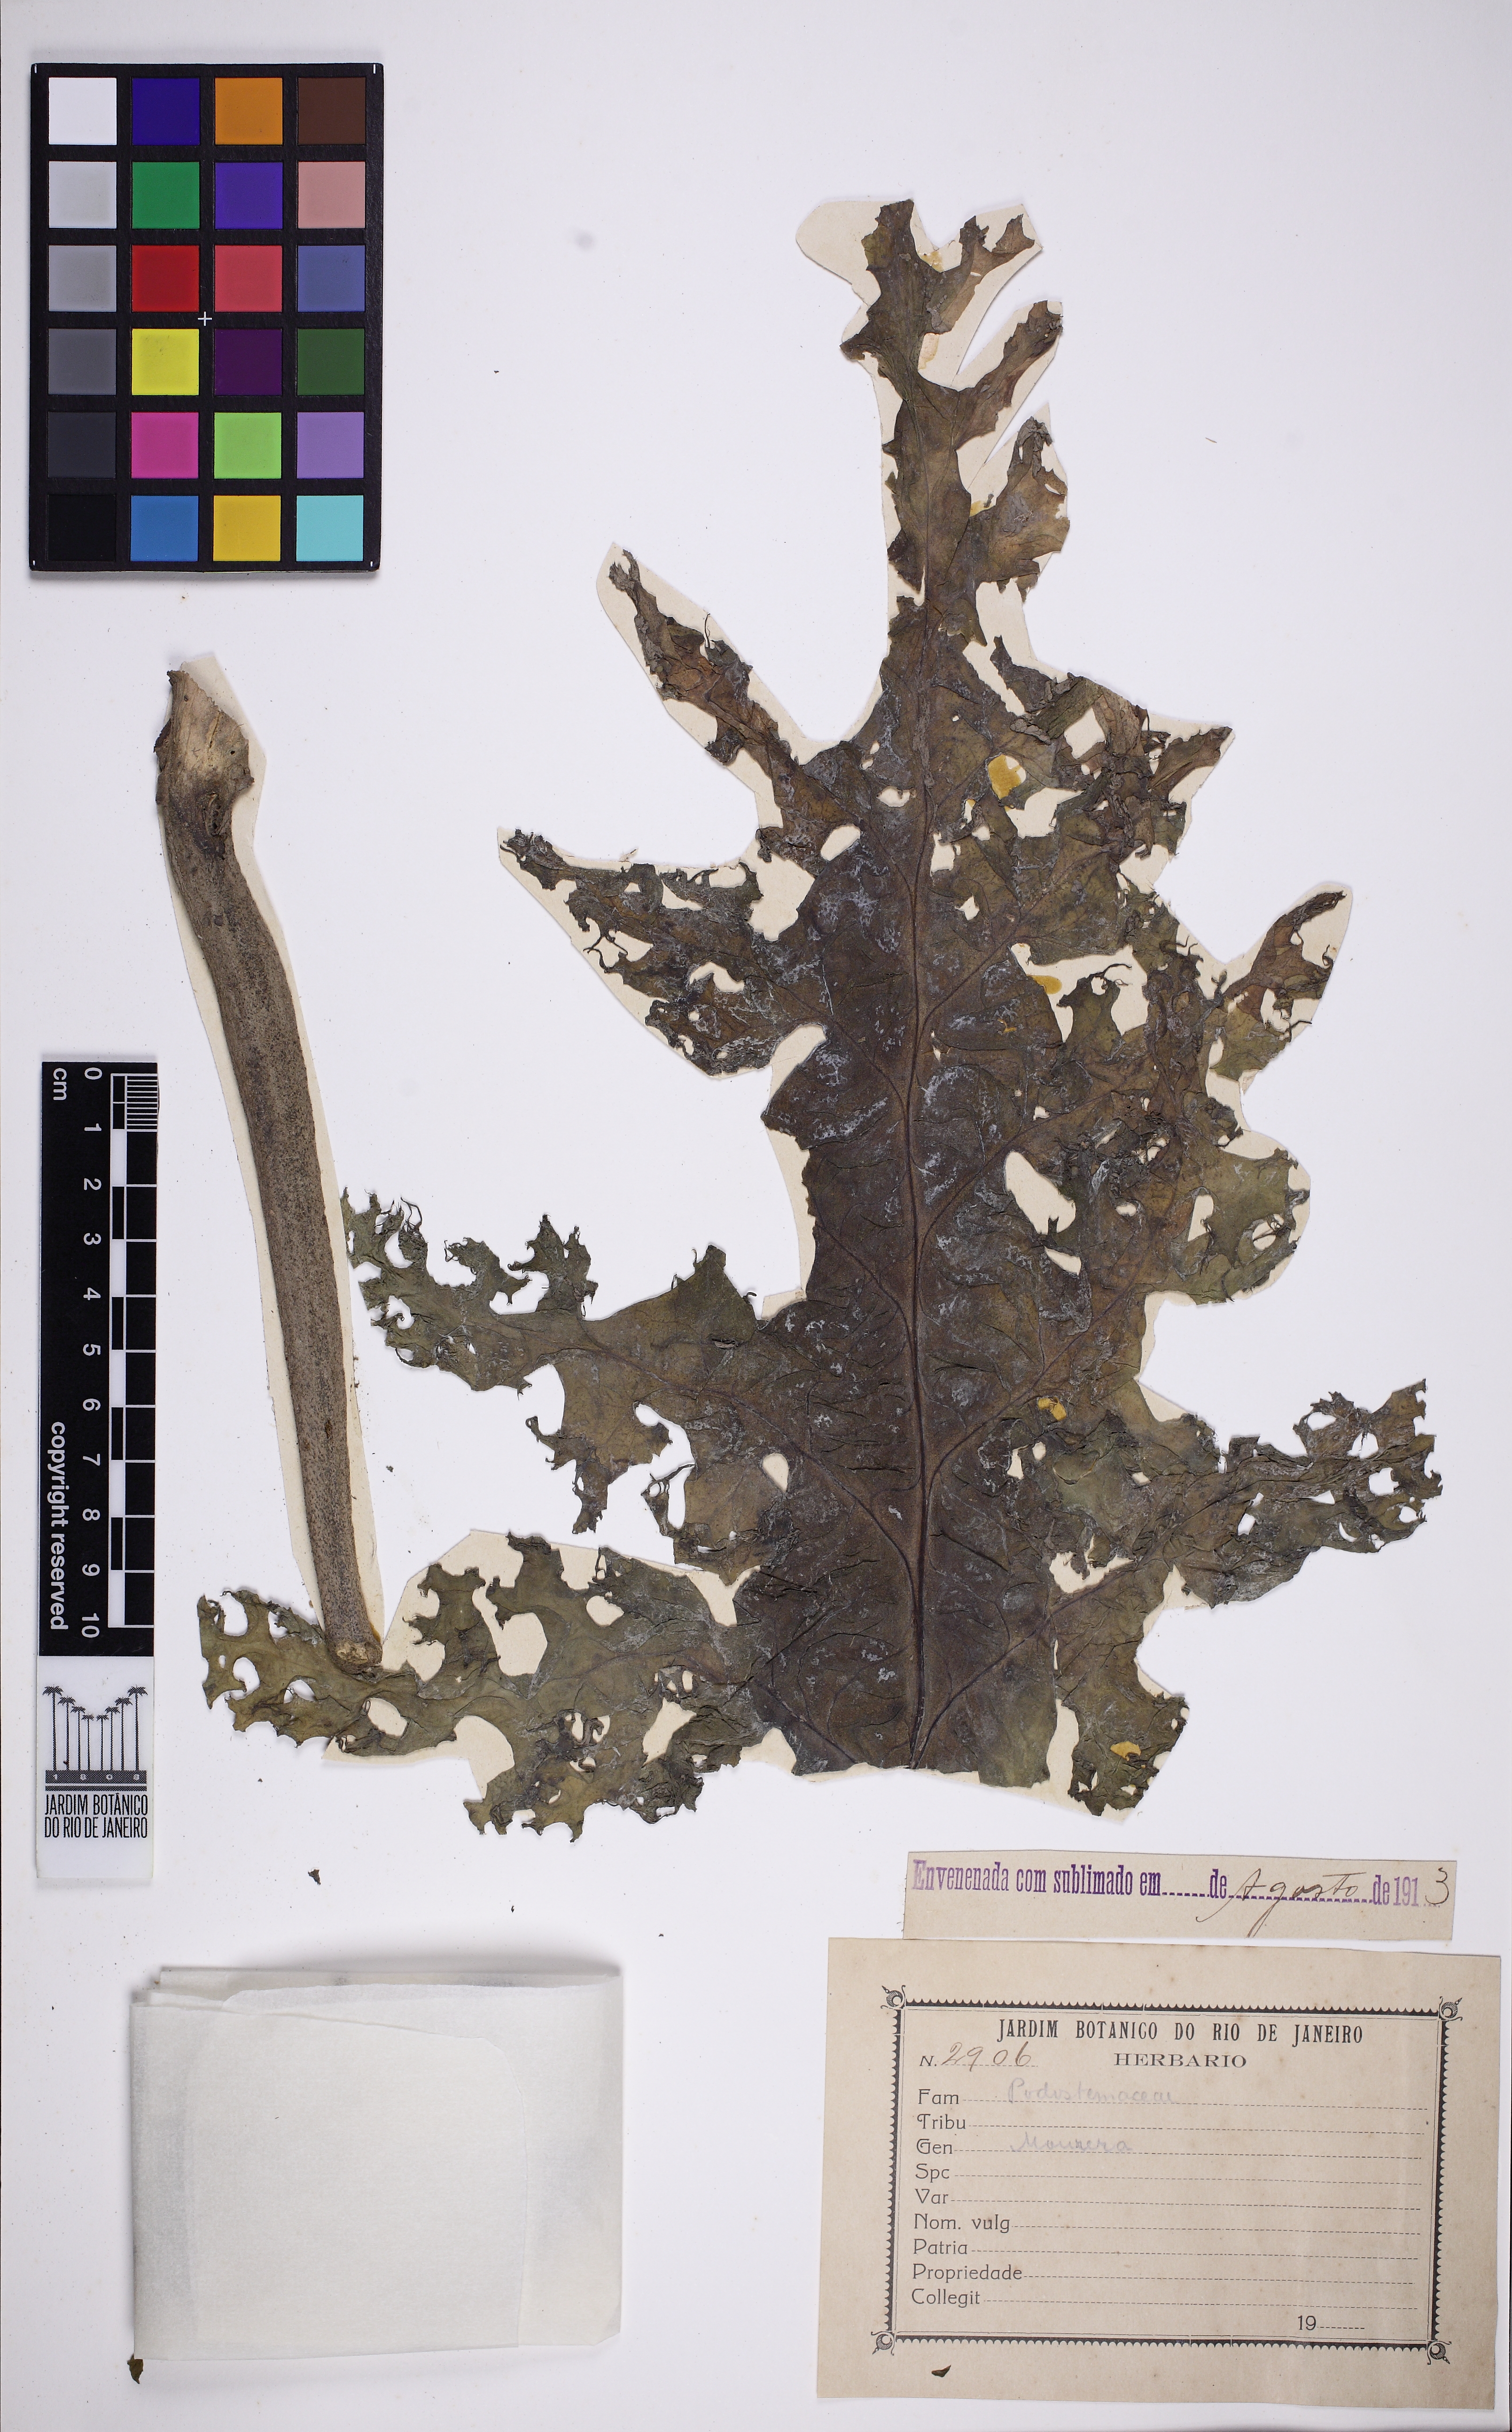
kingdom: Plantae
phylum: Tracheophyta
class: Magnoliopsida
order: Malpighiales
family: Podostemaceae
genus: Mourera
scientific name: Mourera fluviatilis
